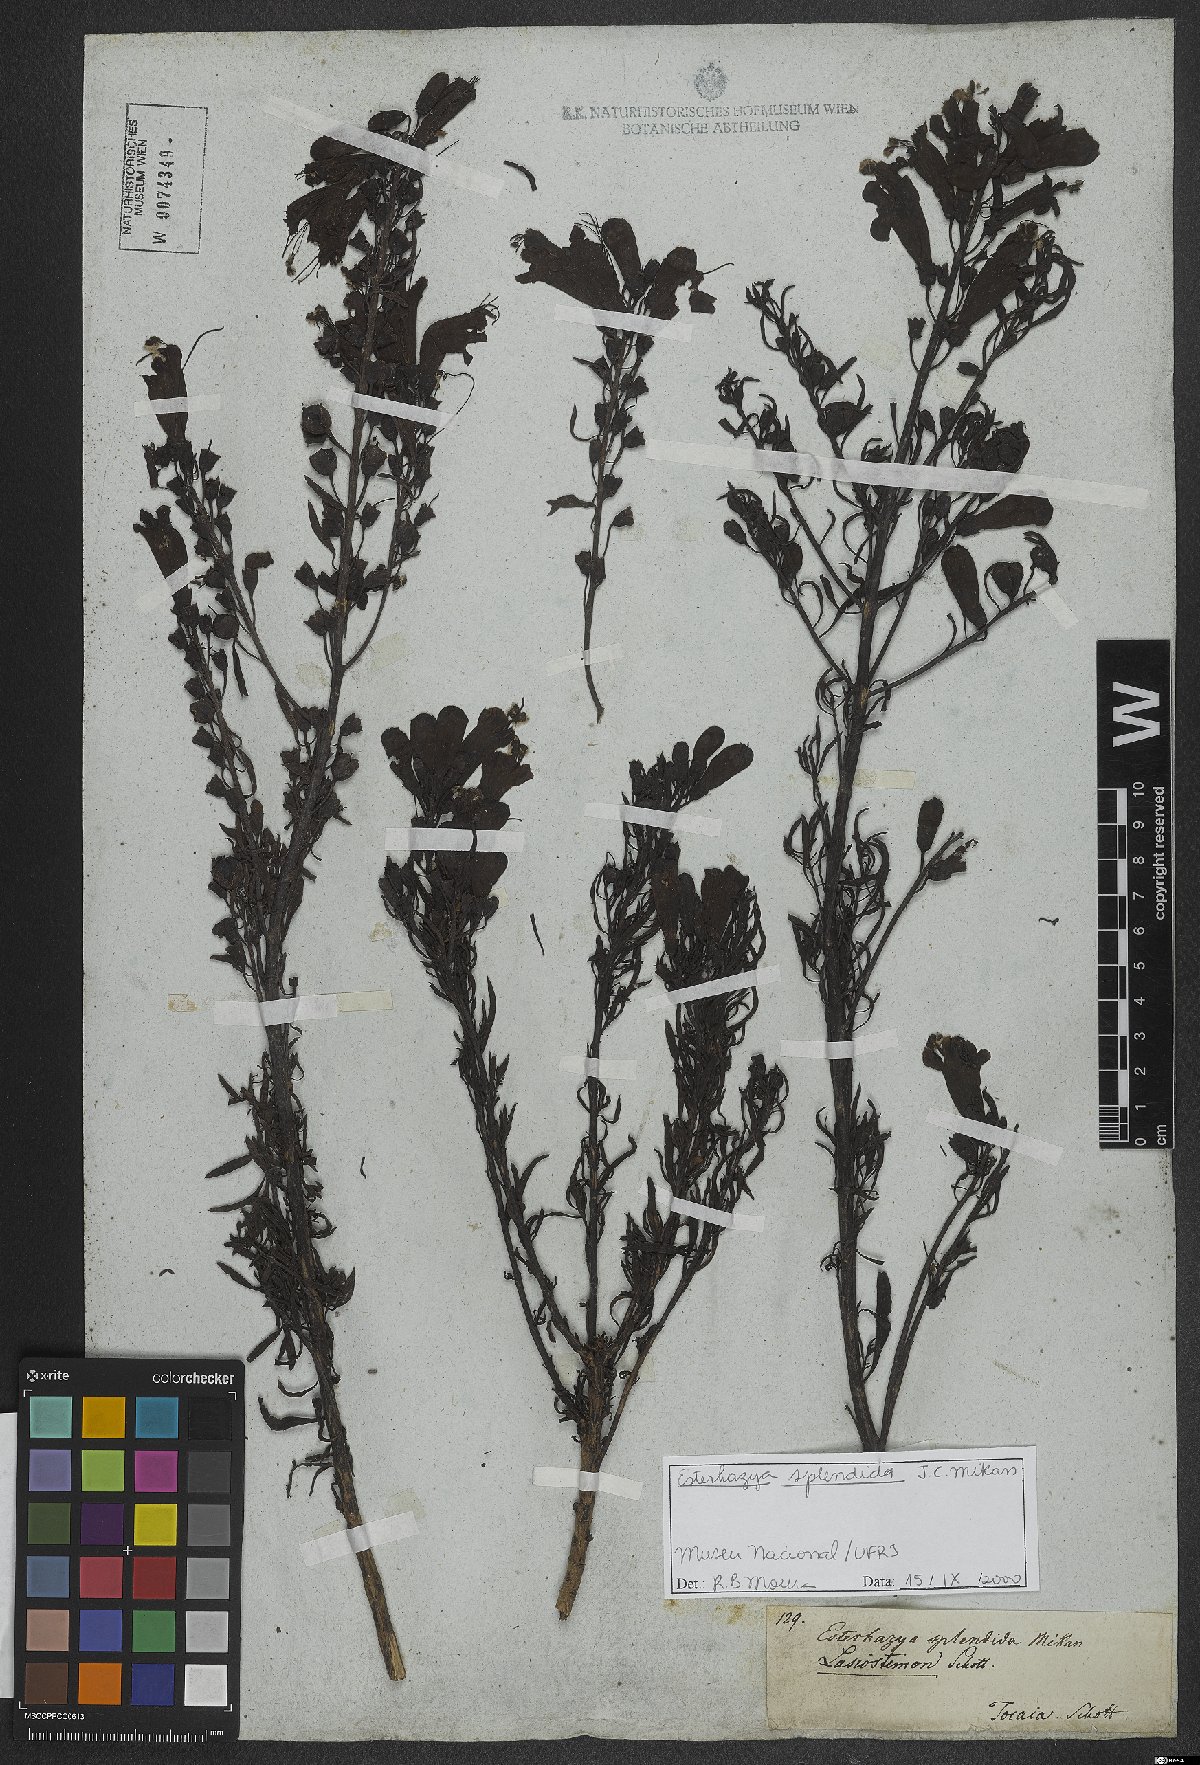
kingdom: Plantae
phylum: Tracheophyta
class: Magnoliopsida
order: Lamiales
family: Orobanchaceae
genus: Esterhazya
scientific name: Esterhazya splendida
